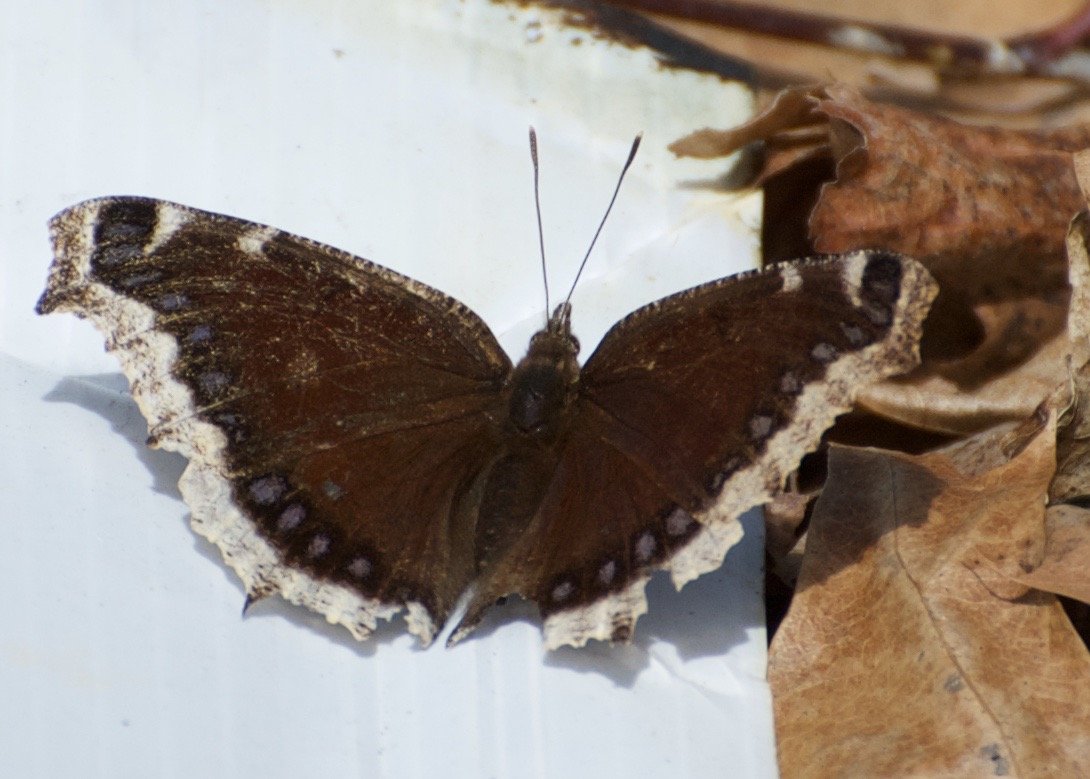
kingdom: Animalia
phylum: Arthropoda
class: Insecta
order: Lepidoptera
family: Nymphalidae
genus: Nymphalis
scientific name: Nymphalis antiopa
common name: Mourning Cloak
